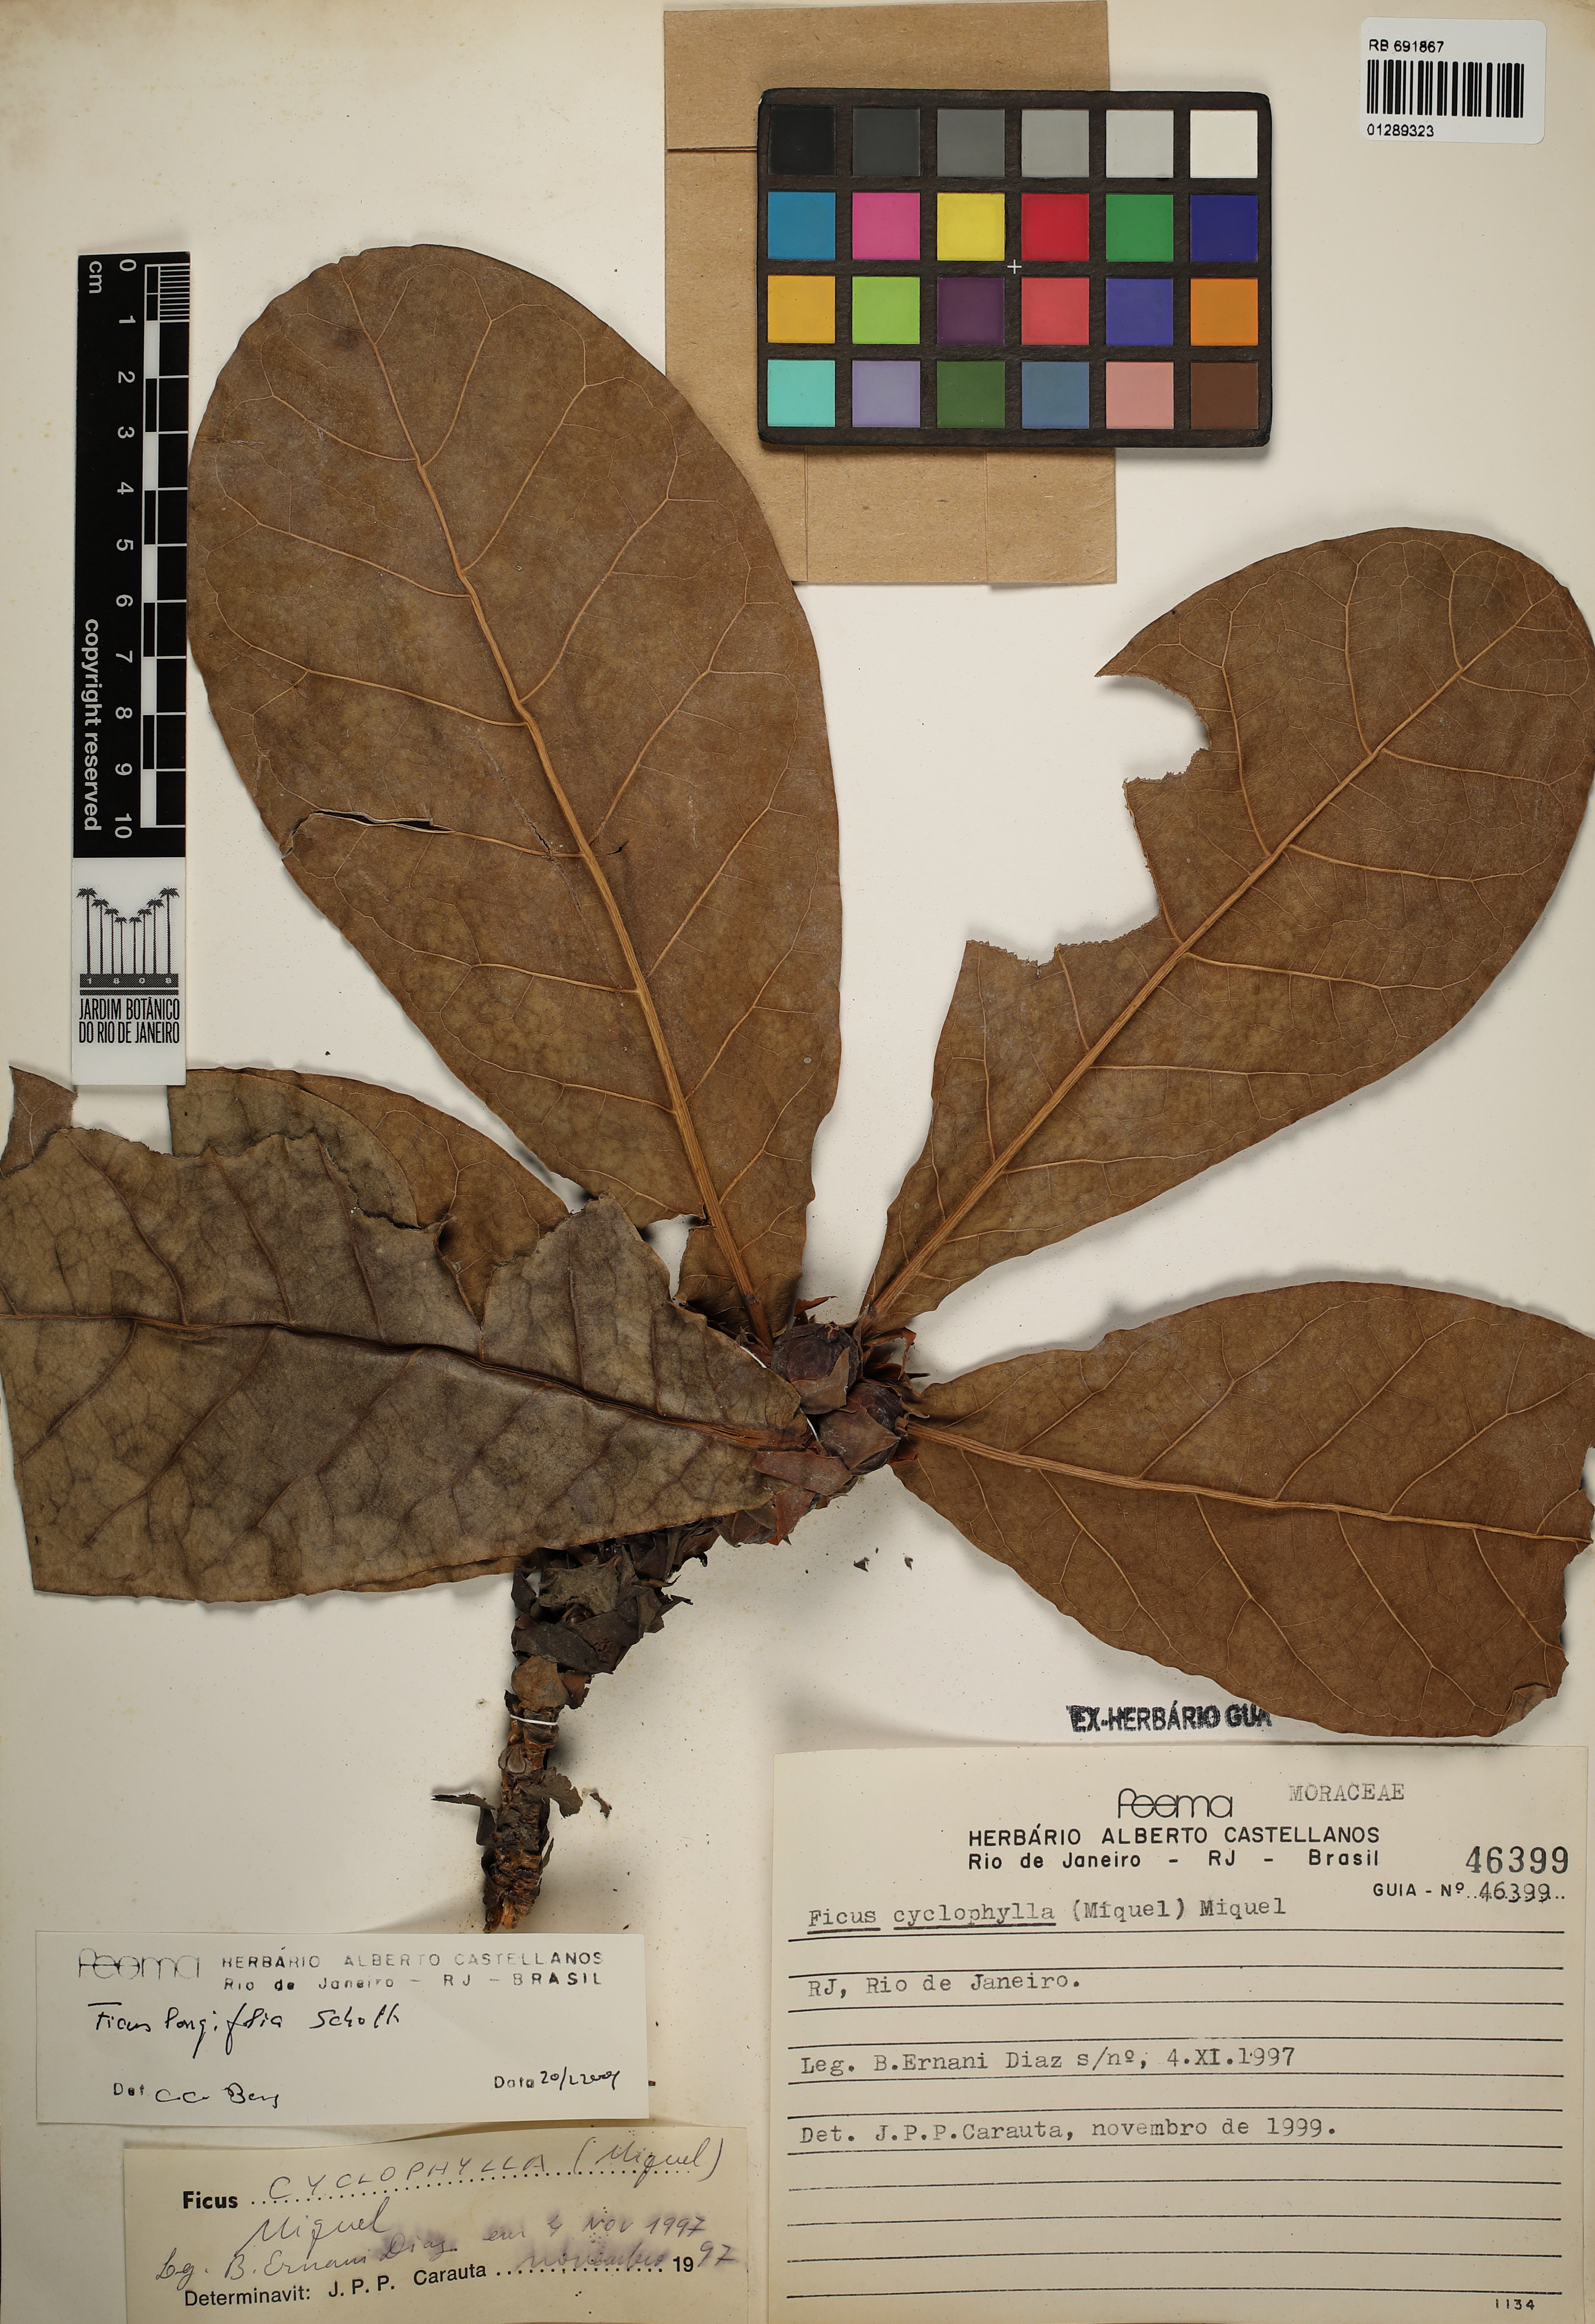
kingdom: Plantae
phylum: Tracheophyta
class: Magnoliopsida
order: Rosales
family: Moraceae
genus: Ficus
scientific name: Ficus longifolia
